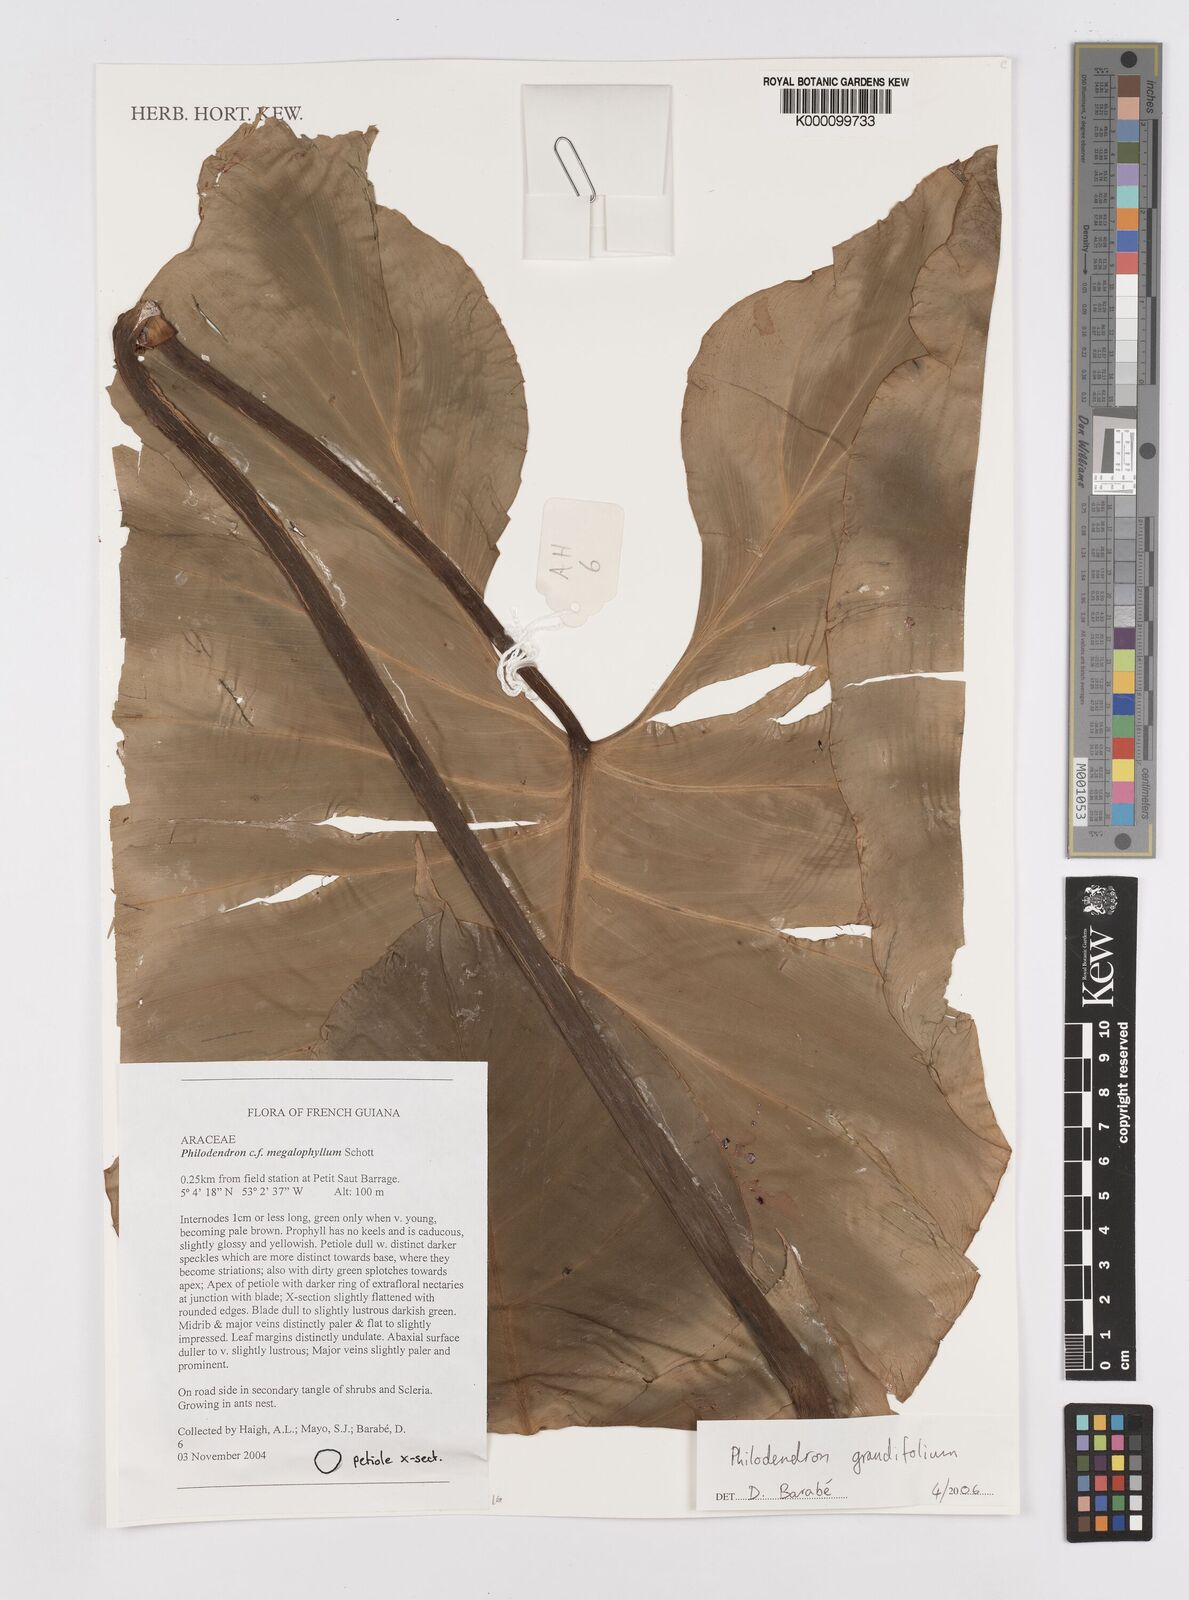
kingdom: Plantae
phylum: Tracheophyta
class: Liliopsida
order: Alismatales
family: Araceae
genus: Philodendron
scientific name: Philodendron grandifolium
